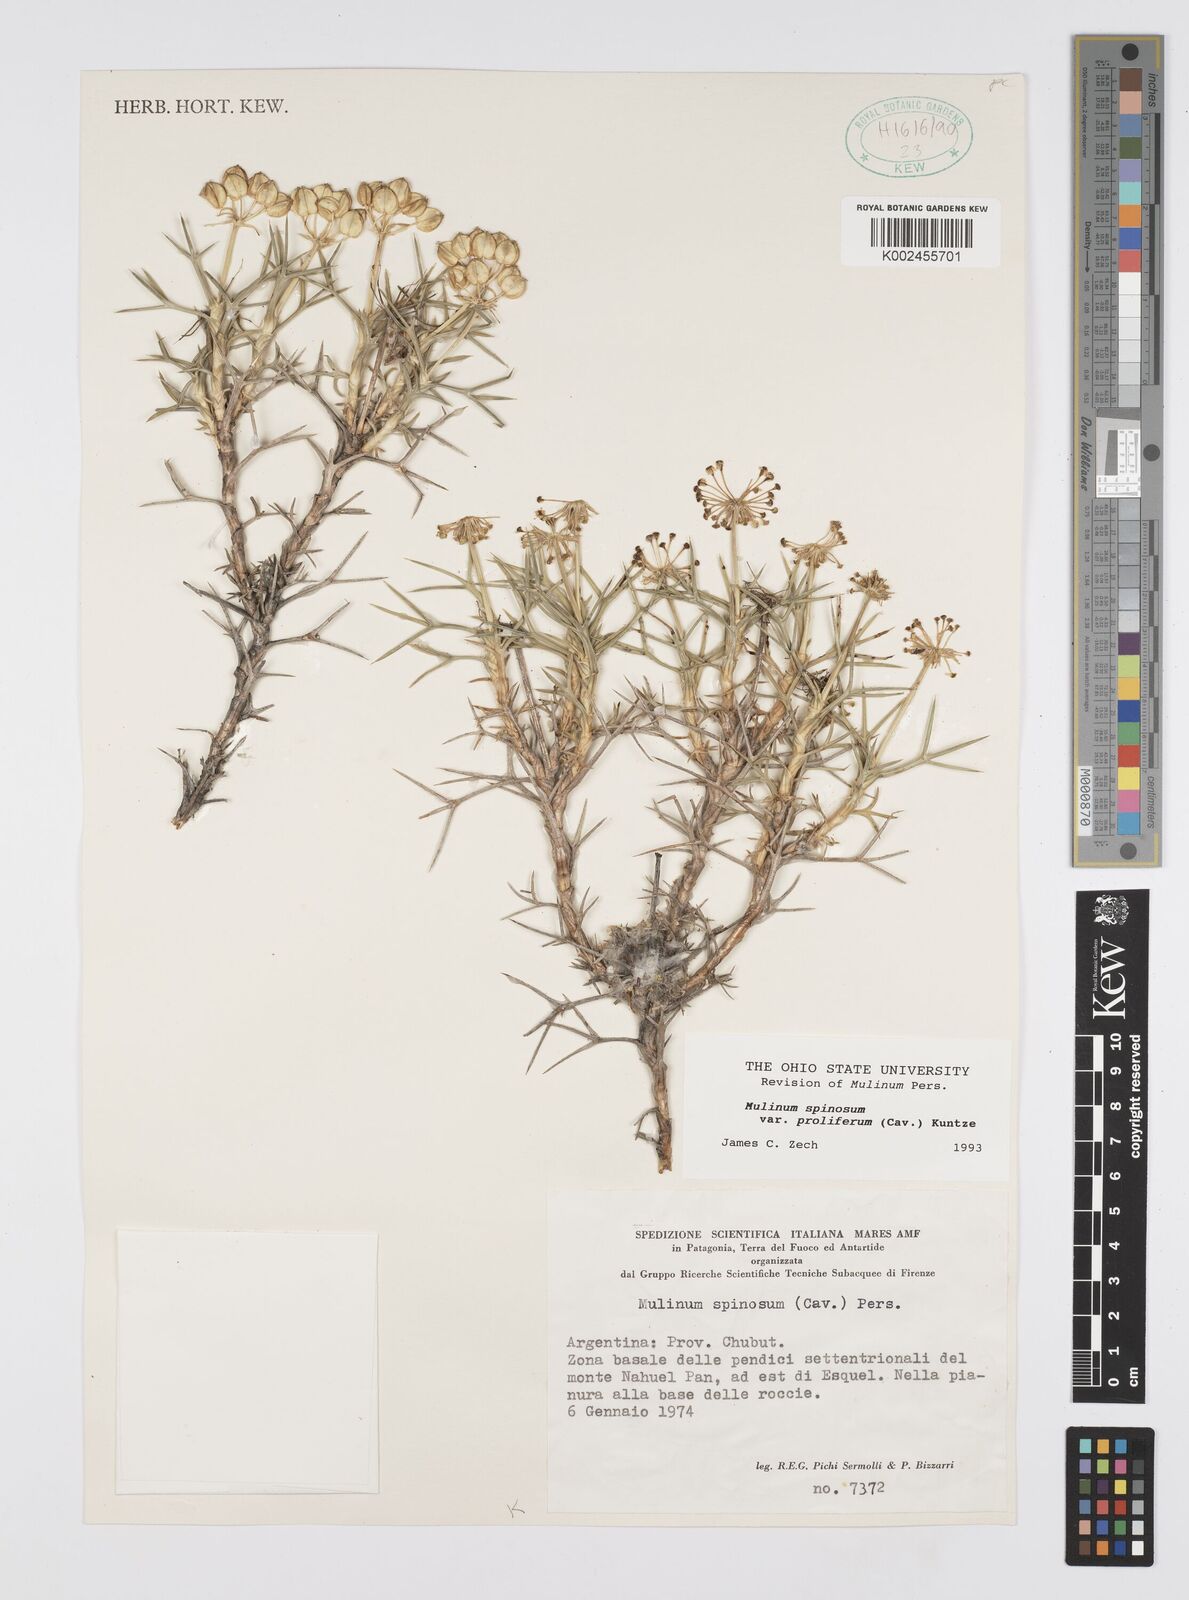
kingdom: Plantae
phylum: Tracheophyta
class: Magnoliopsida
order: Apiales
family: Apiaceae
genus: Azorella
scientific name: Azorella prolifera
